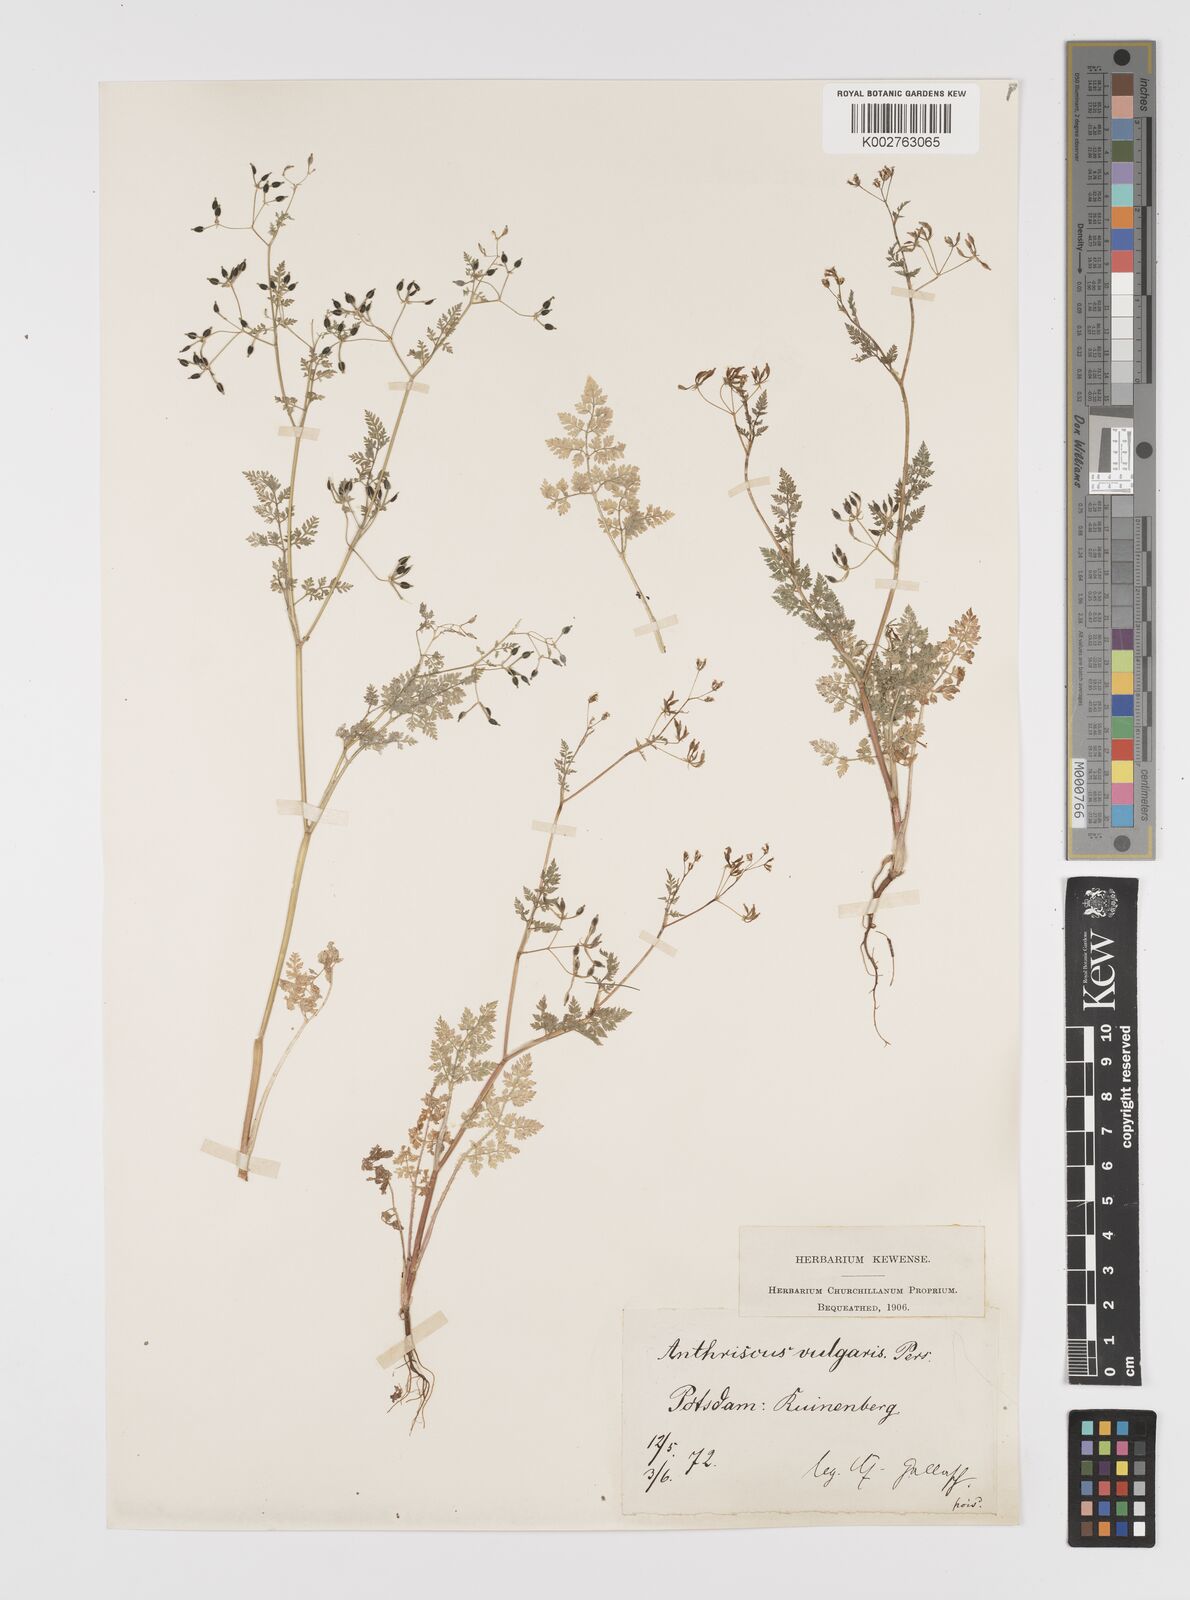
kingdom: Plantae
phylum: Tracheophyta
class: Magnoliopsida
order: Apiales
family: Apiaceae
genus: Anthriscus
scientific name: Anthriscus caucalis
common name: Bur chervil
